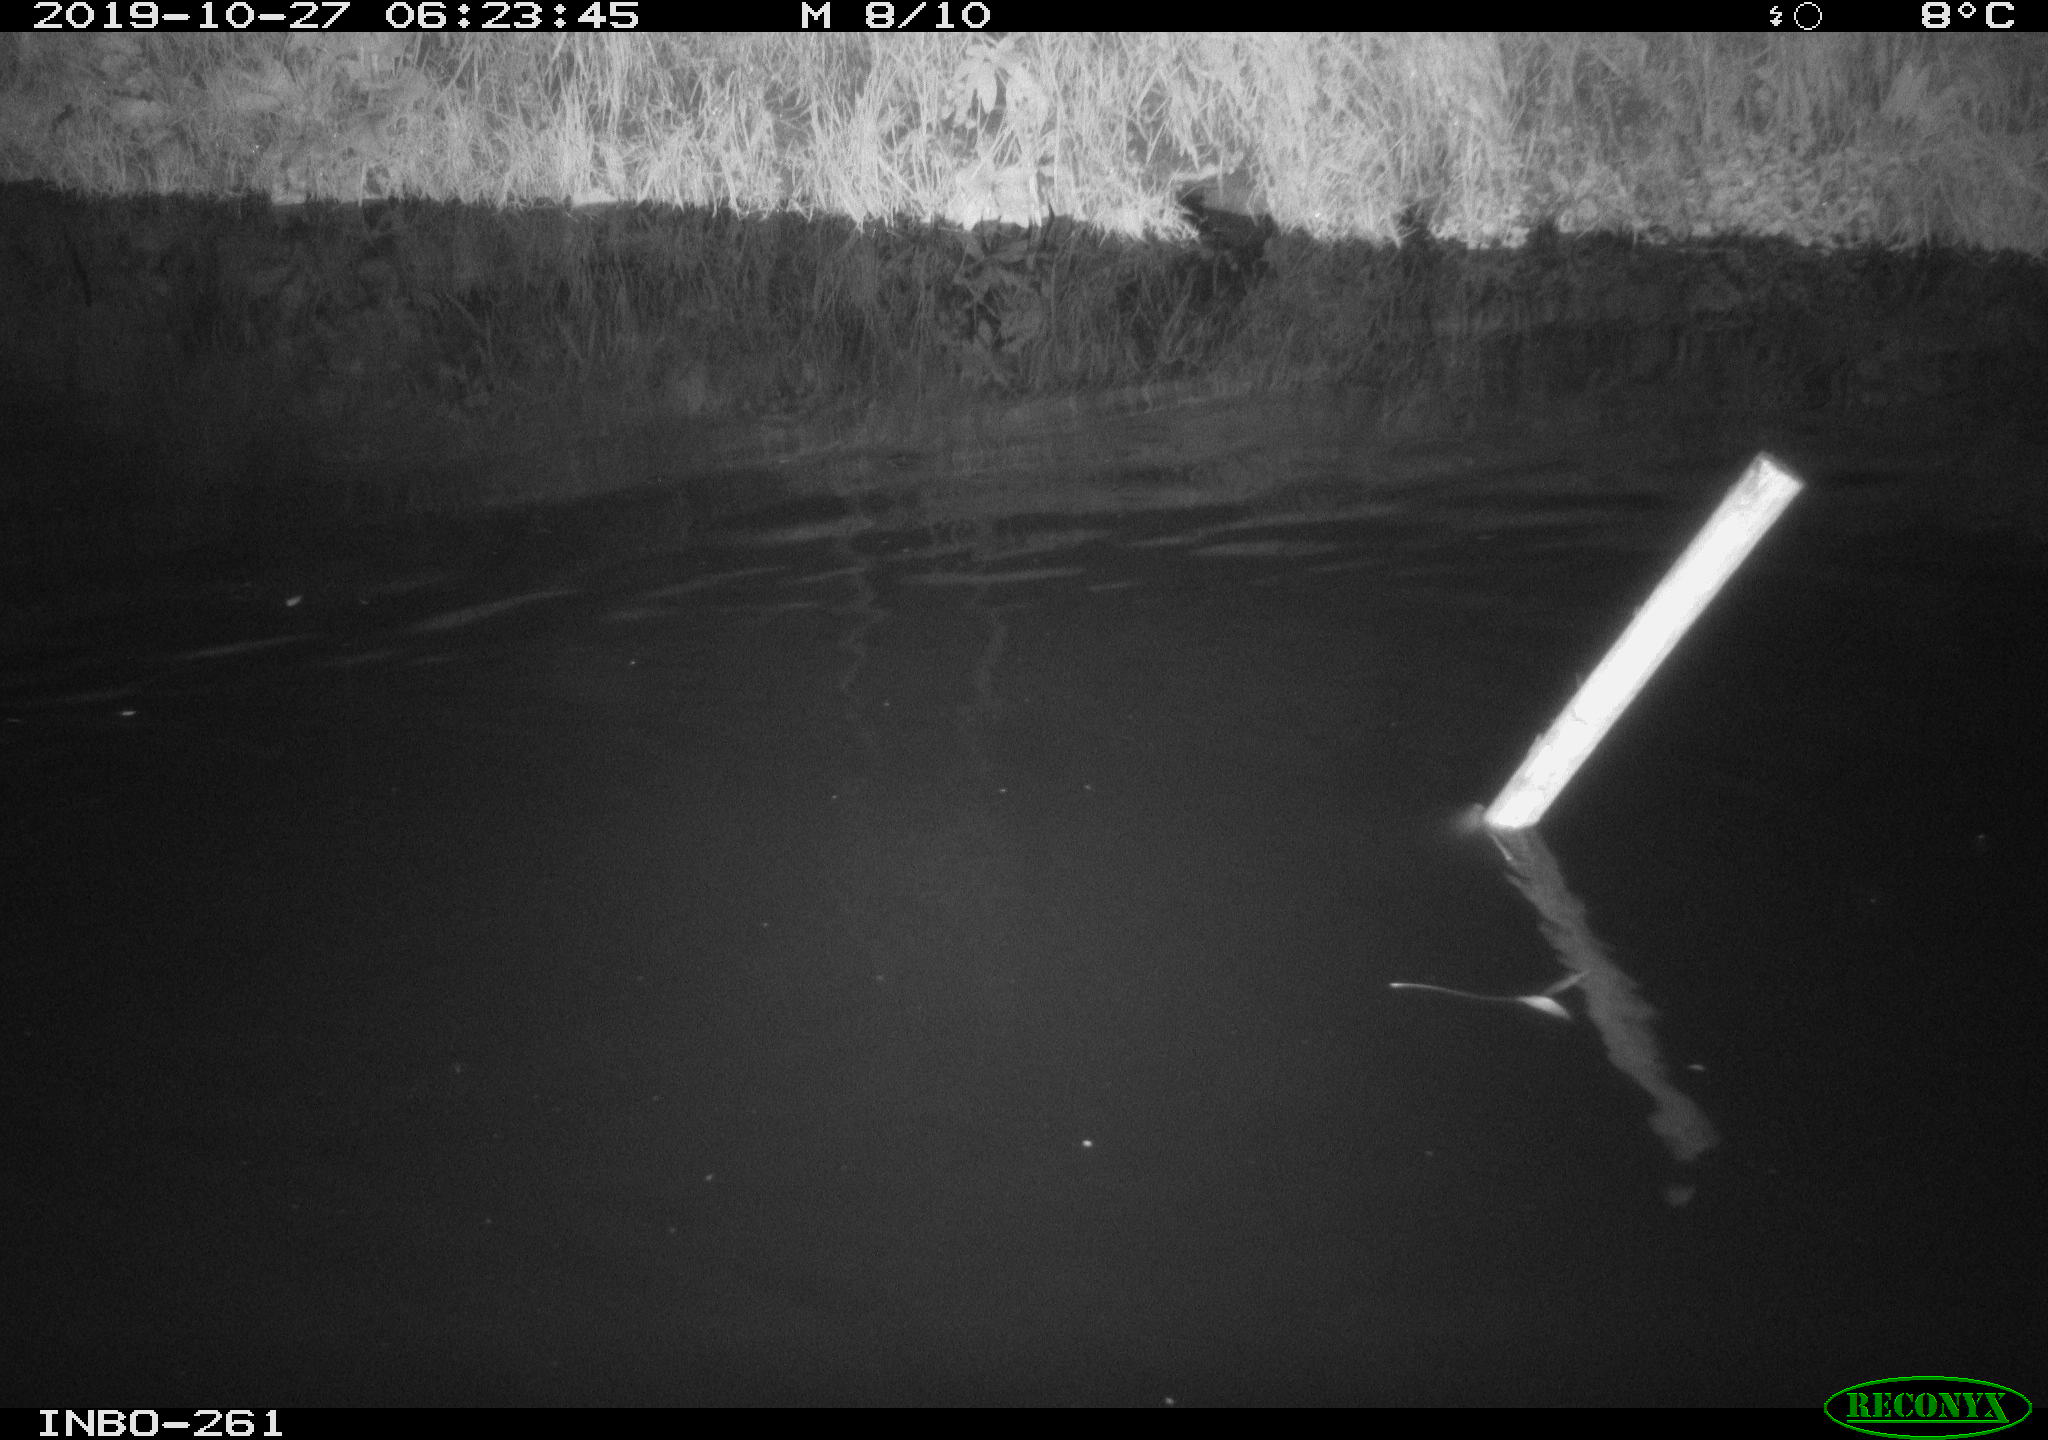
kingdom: Animalia
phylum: Chordata
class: Aves
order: Anseriformes
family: Anatidae
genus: Anas
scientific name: Anas platyrhynchos
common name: Mallard
